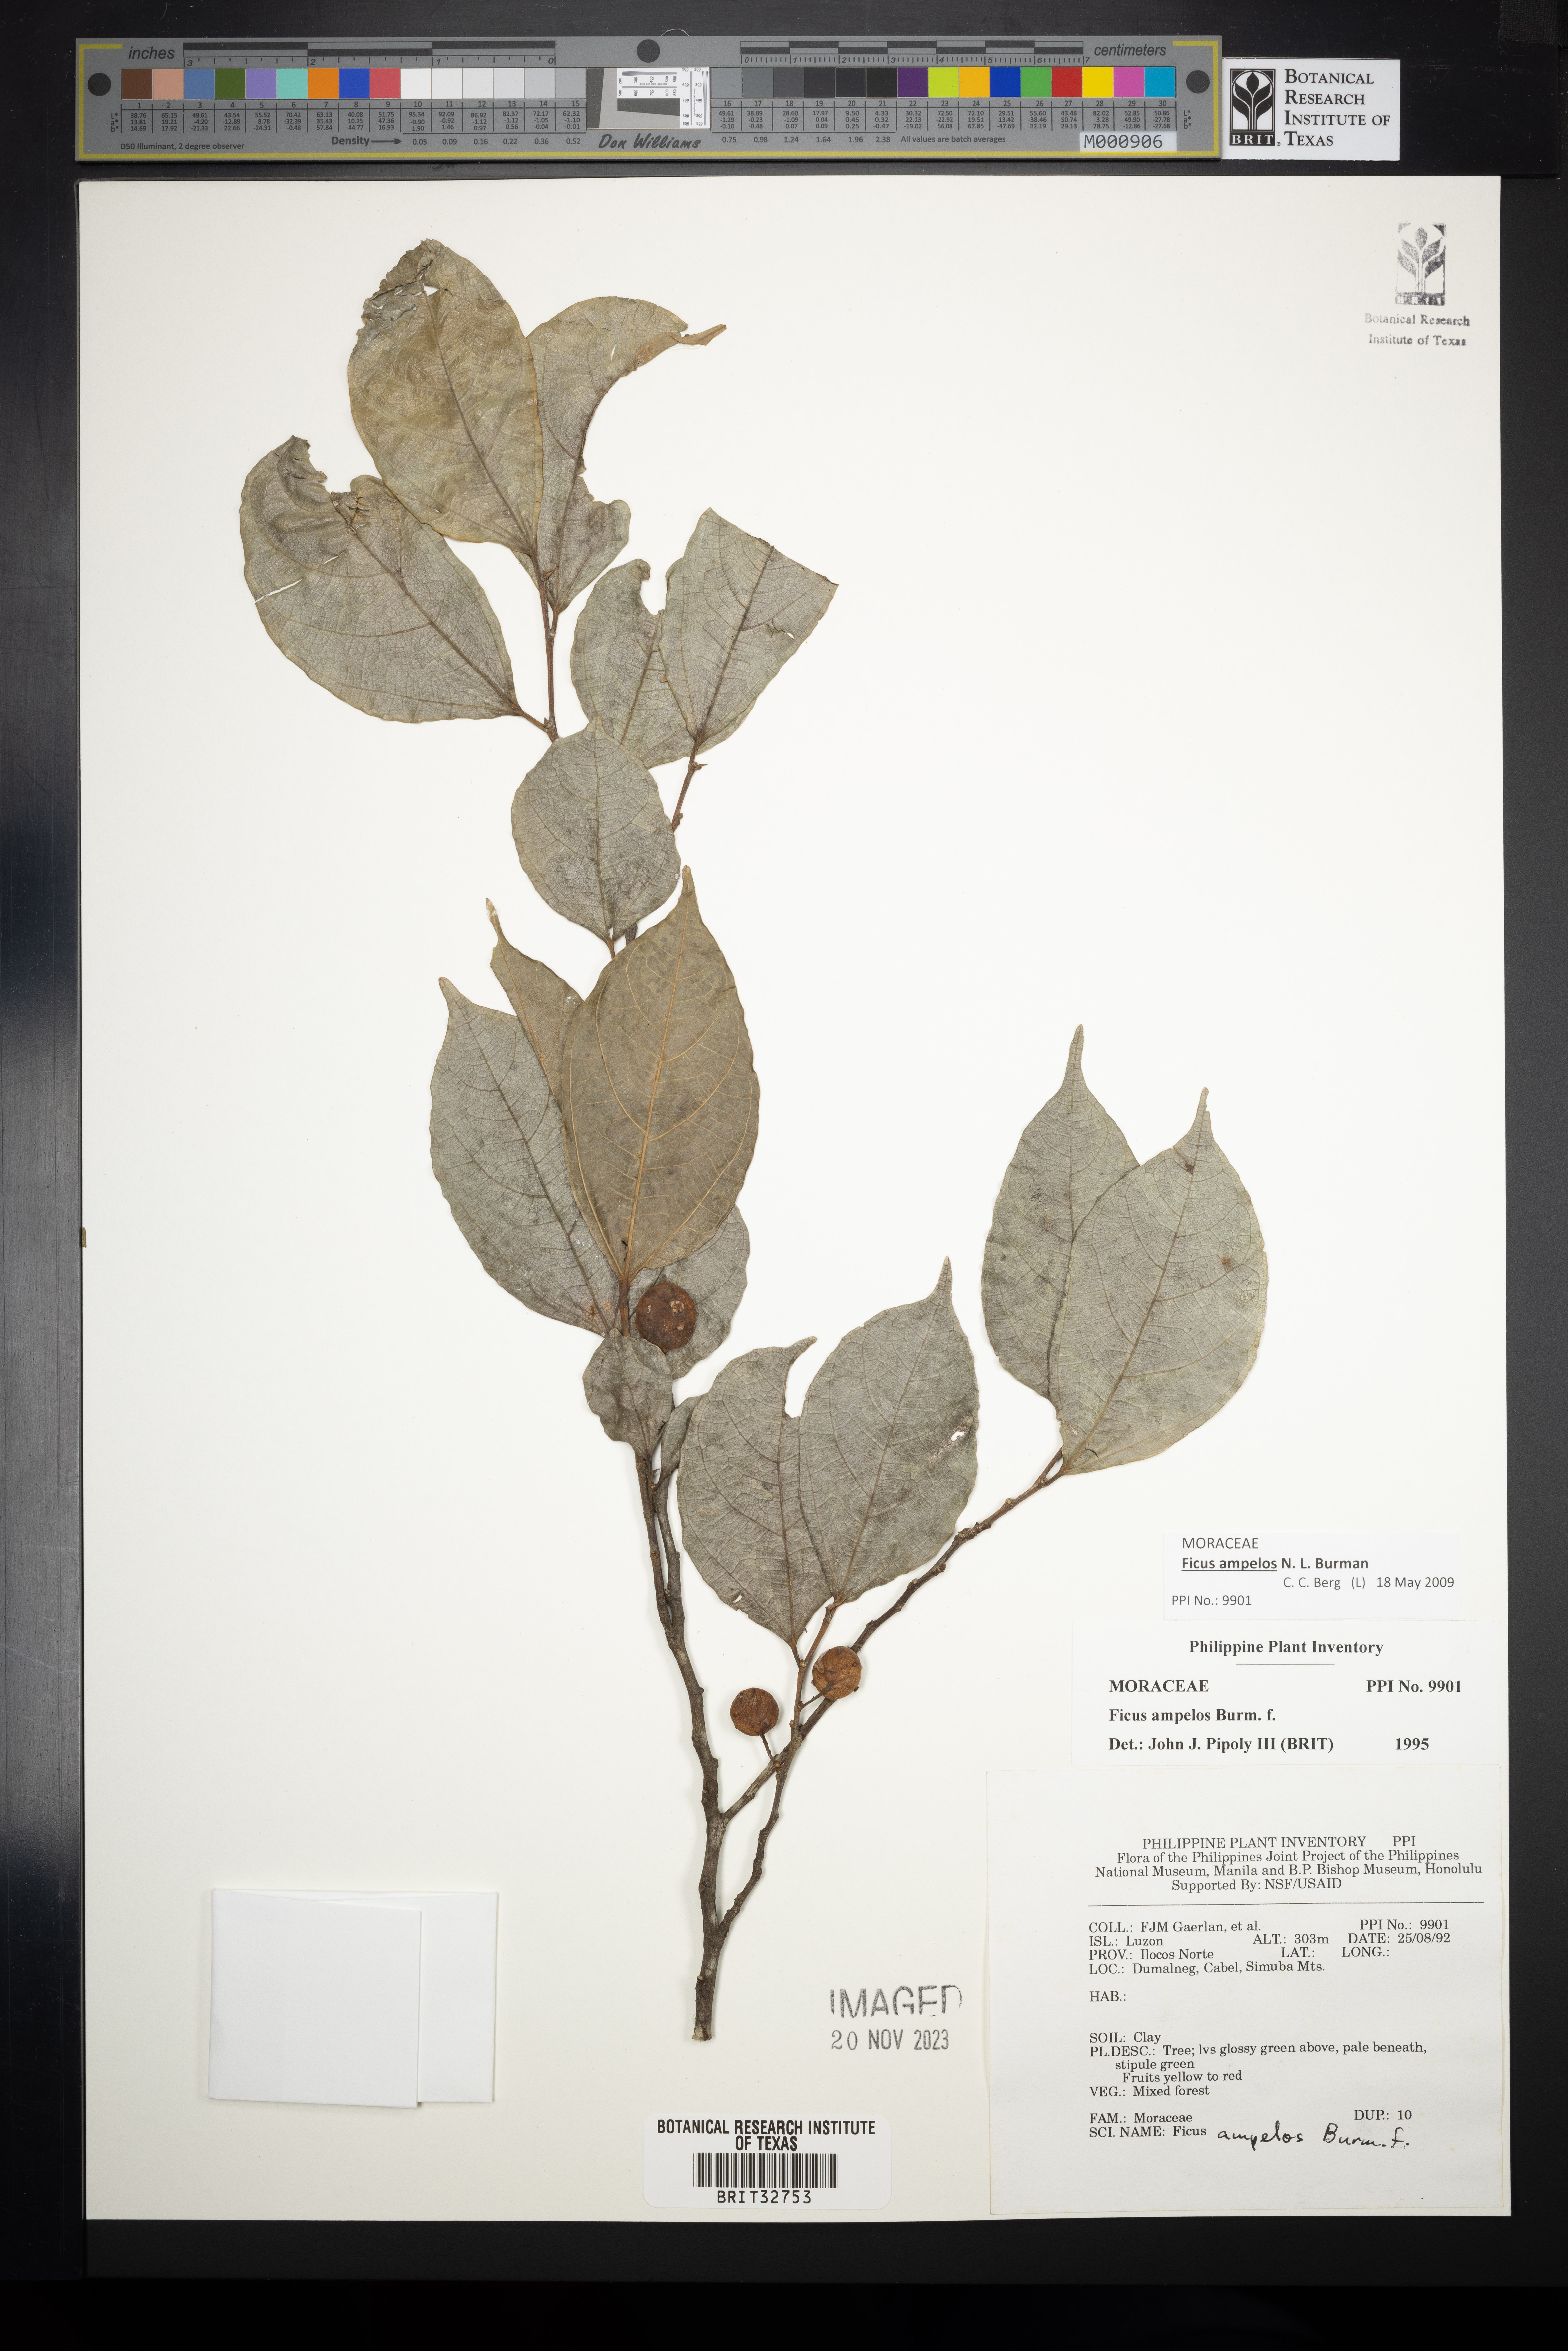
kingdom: Plantae
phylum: Tracheophyta
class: Magnoliopsida
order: Rosales
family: Moraceae
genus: Ficus
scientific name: Ficus ampelos
